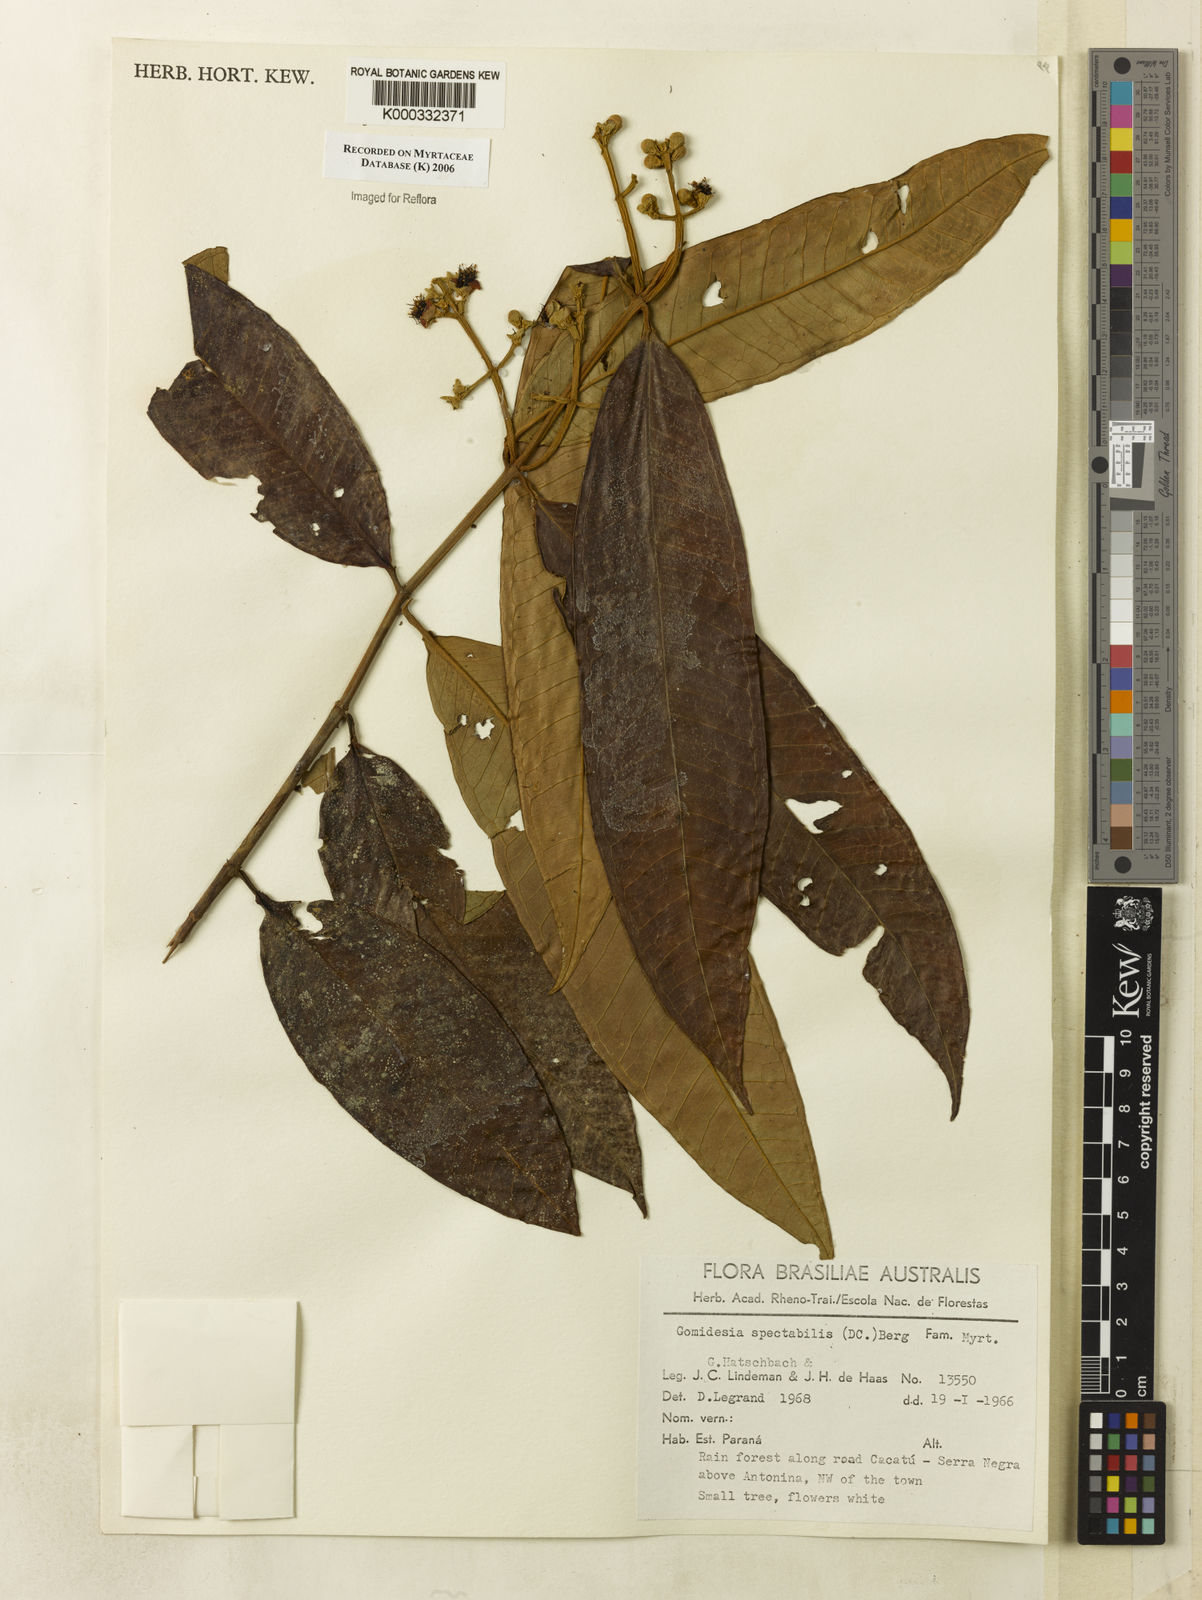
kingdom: Plantae
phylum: Tracheophyta
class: Magnoliopsida
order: Myrtales
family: Myrtaceae
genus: Myrcia
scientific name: Myrcia spectabilis
